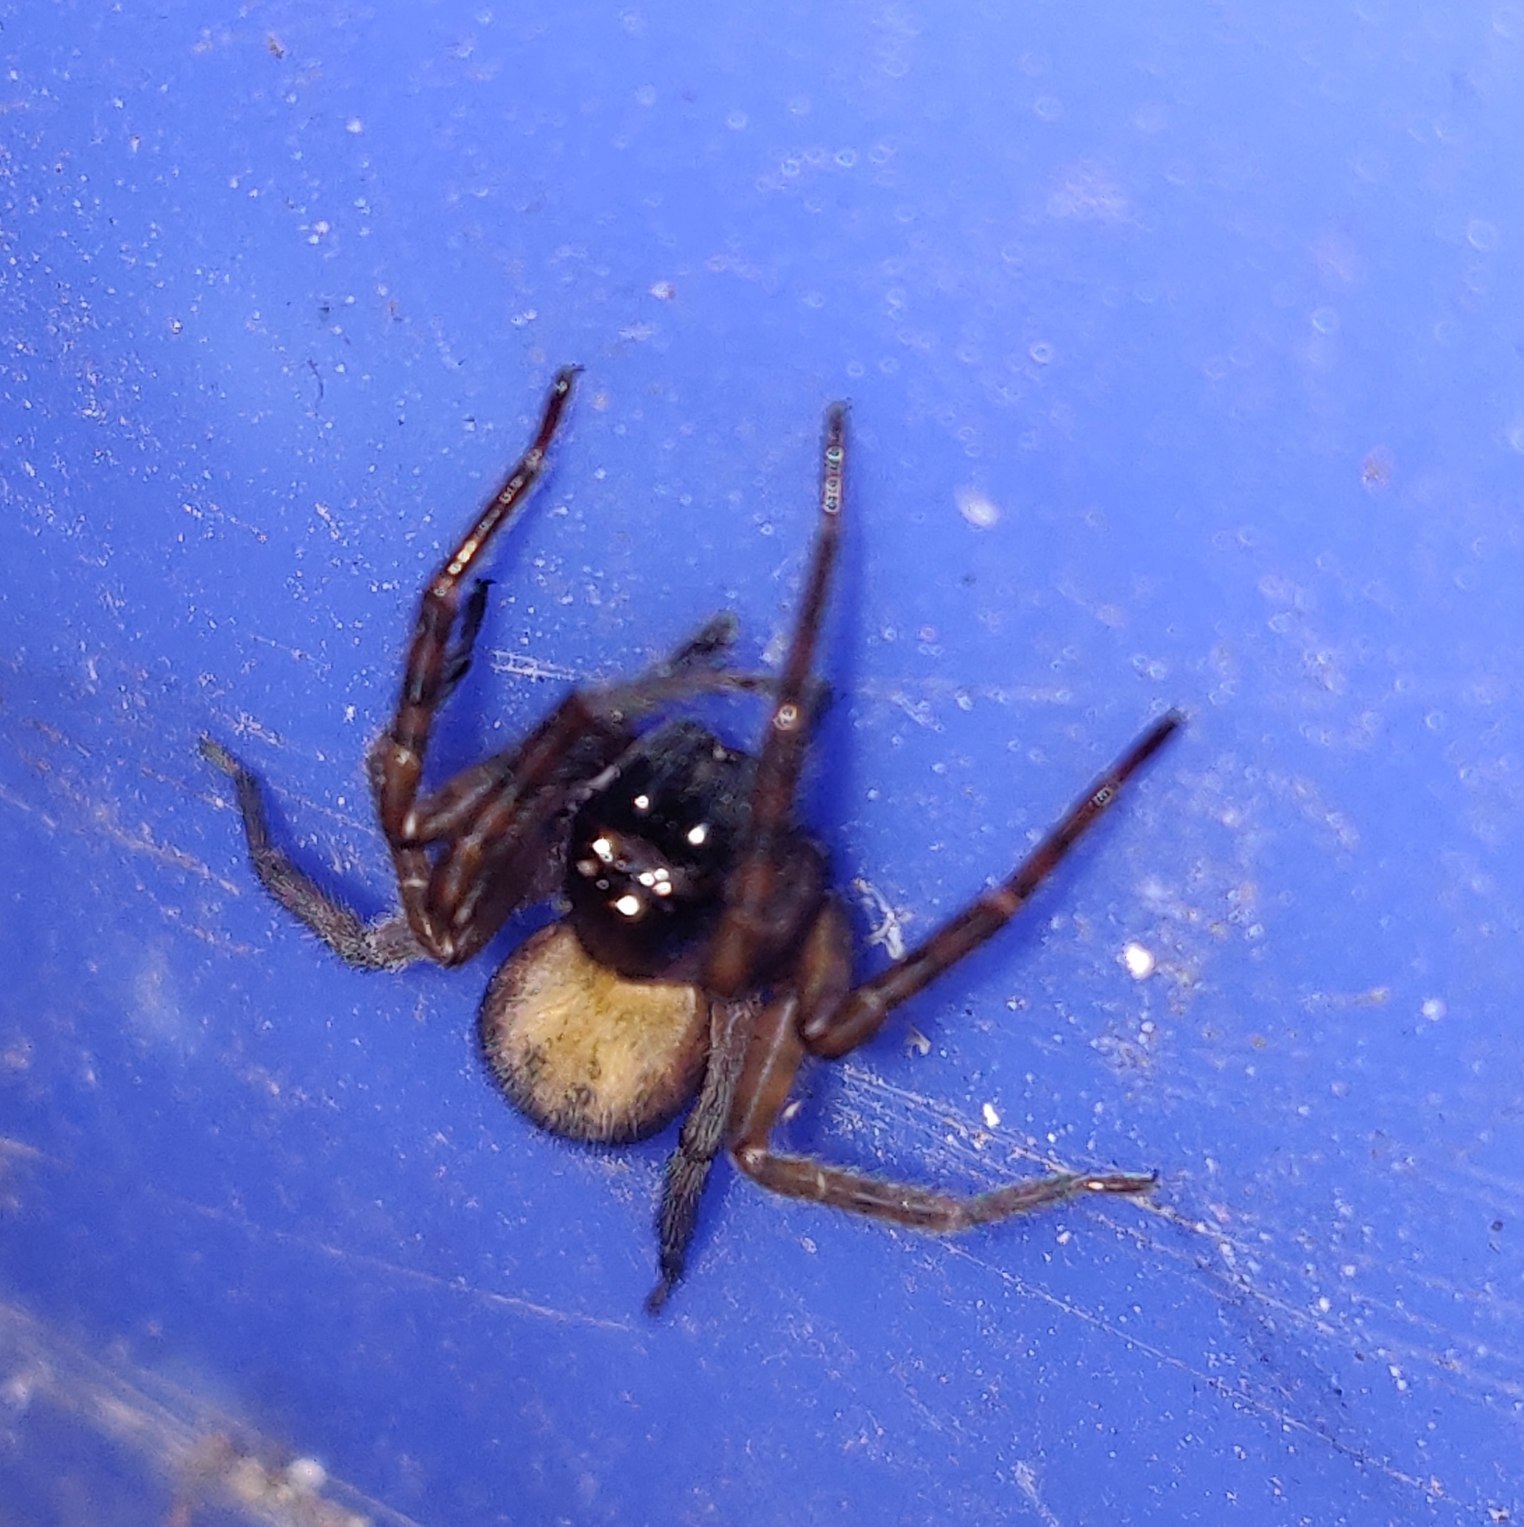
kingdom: Animalia
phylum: Arthropoda
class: Arachnida
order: Araneae
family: Amaurobiidae
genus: Amaurobius
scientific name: Amaurobius similis
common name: Huskartespinder
